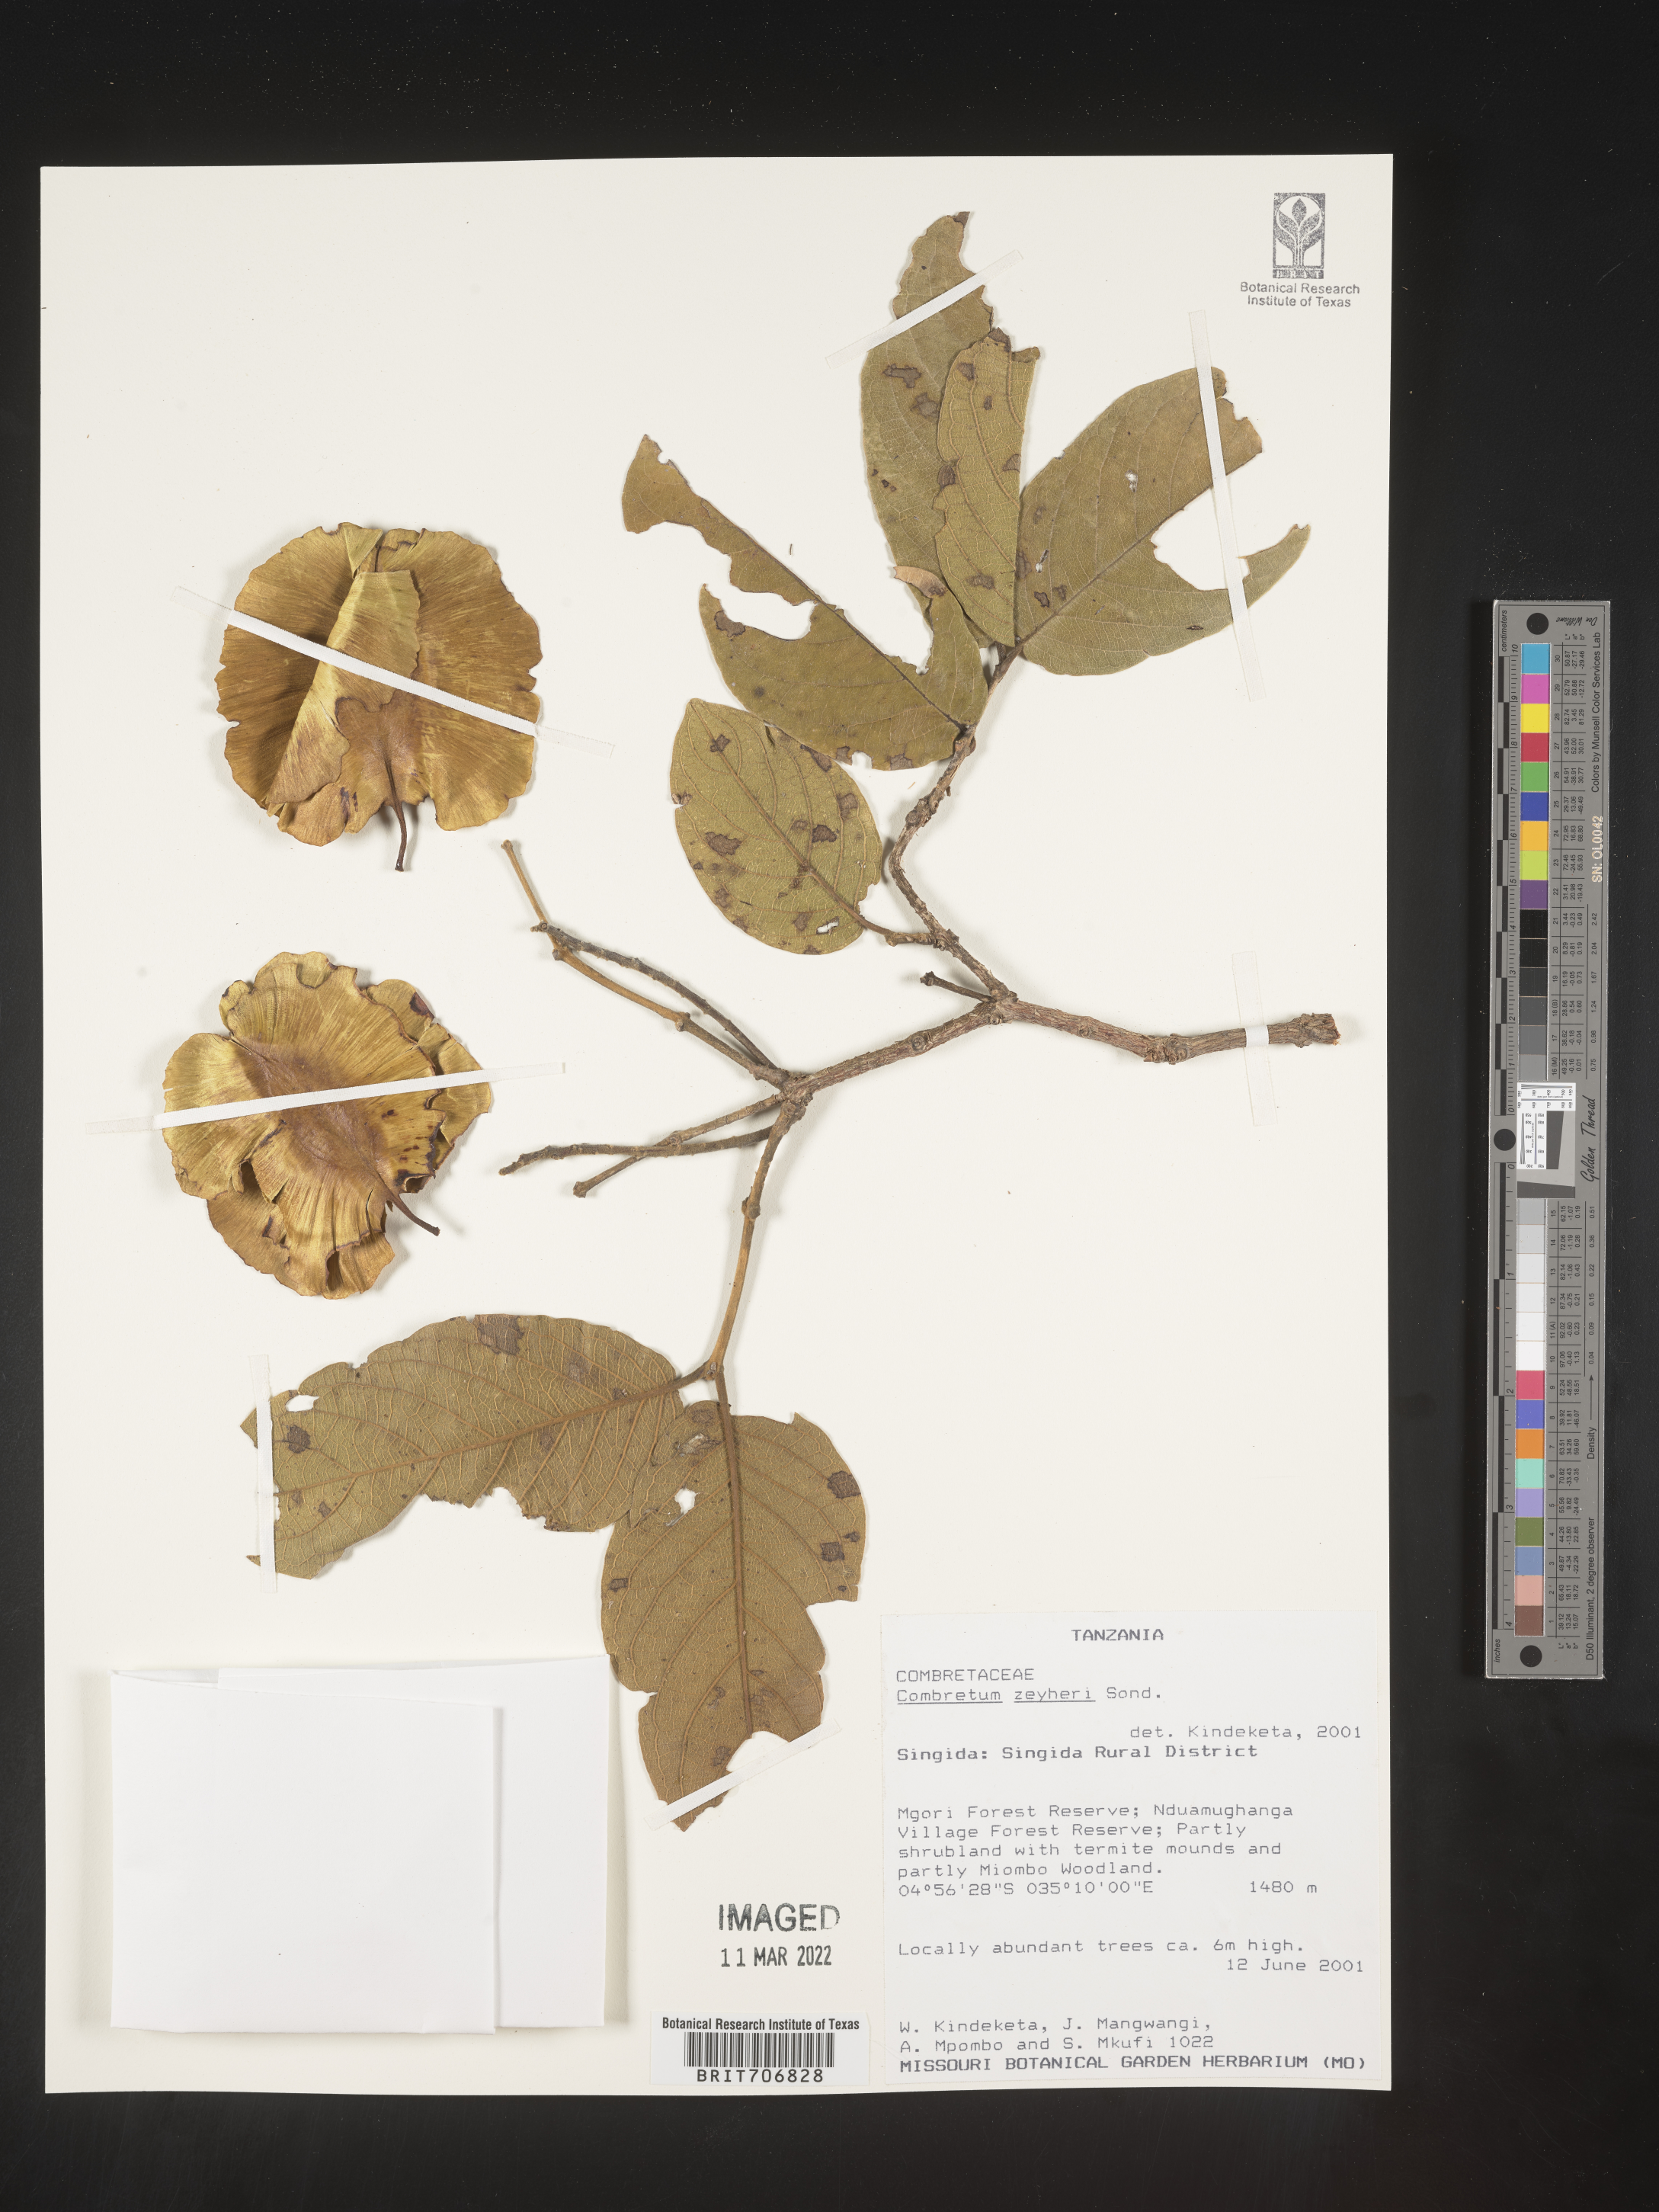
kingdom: Plantae
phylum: Tracheophyta
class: Magnoliopsida
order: Myrtales
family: Combretaceae
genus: Combretum
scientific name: Combretum
